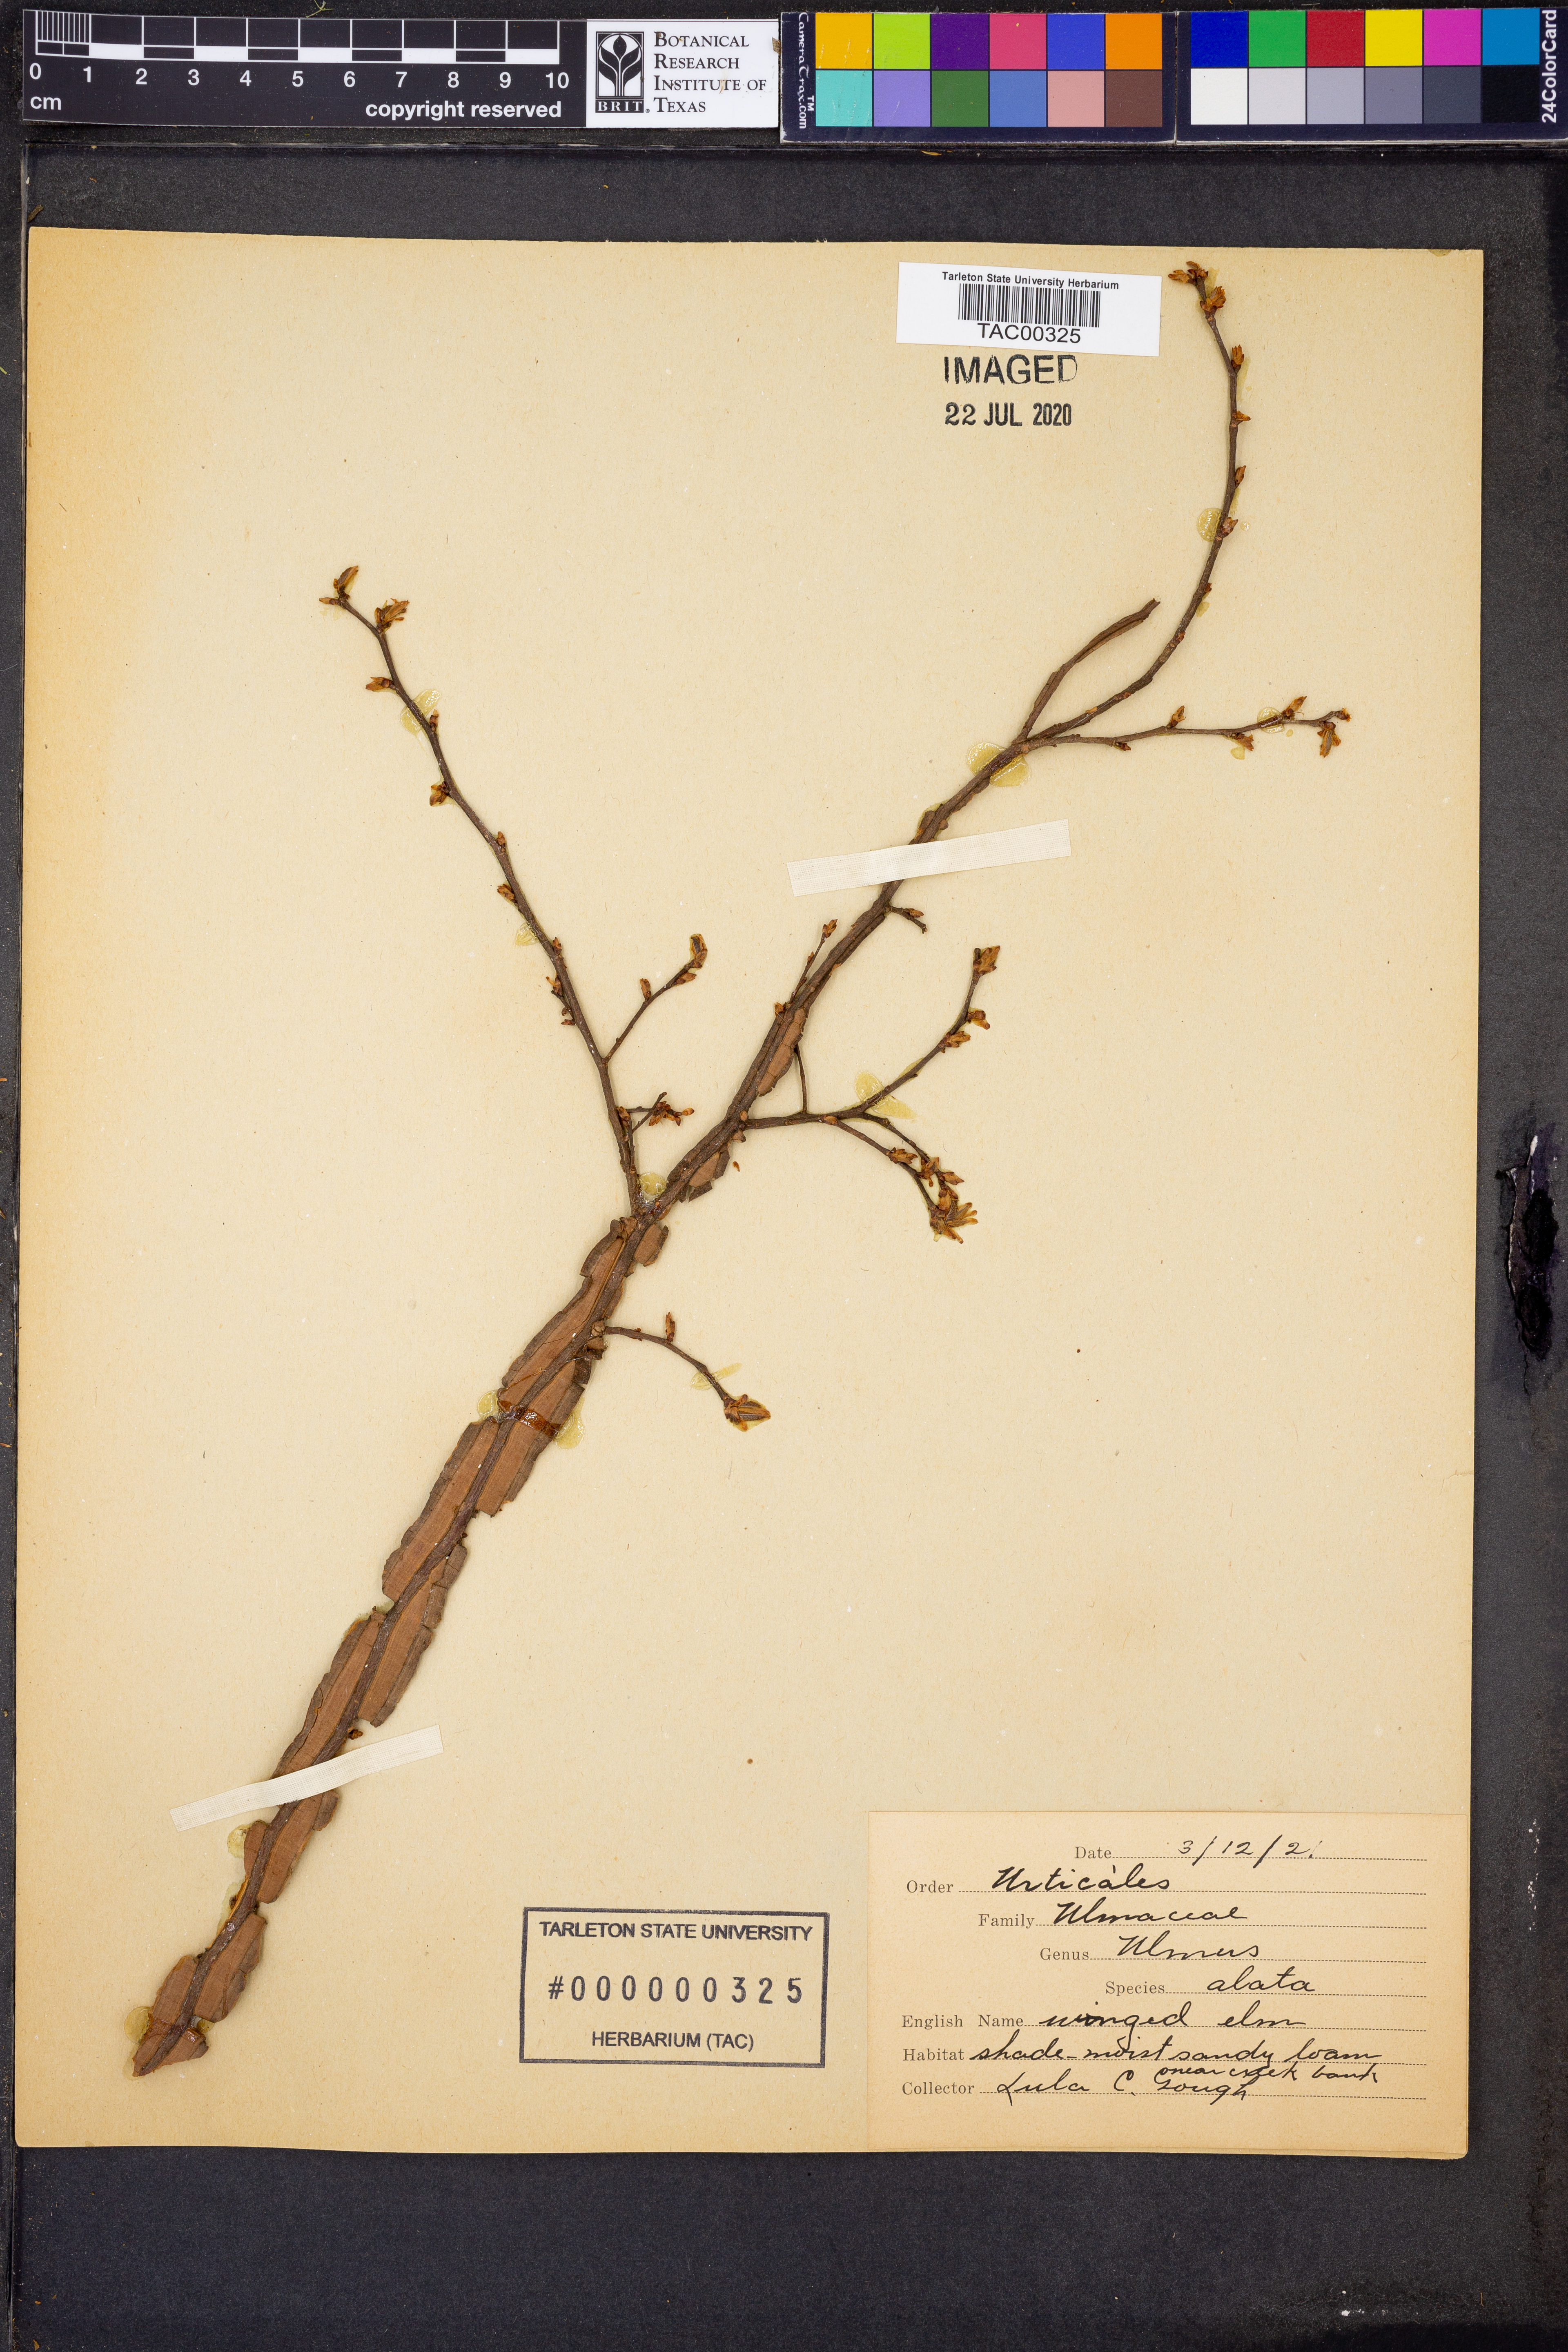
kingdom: Plantae
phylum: Tracheophyta
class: Magnoliopsida
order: Rosales
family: Ulmaceae
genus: Ulmus
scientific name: Ulmus alata
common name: Winged elm
